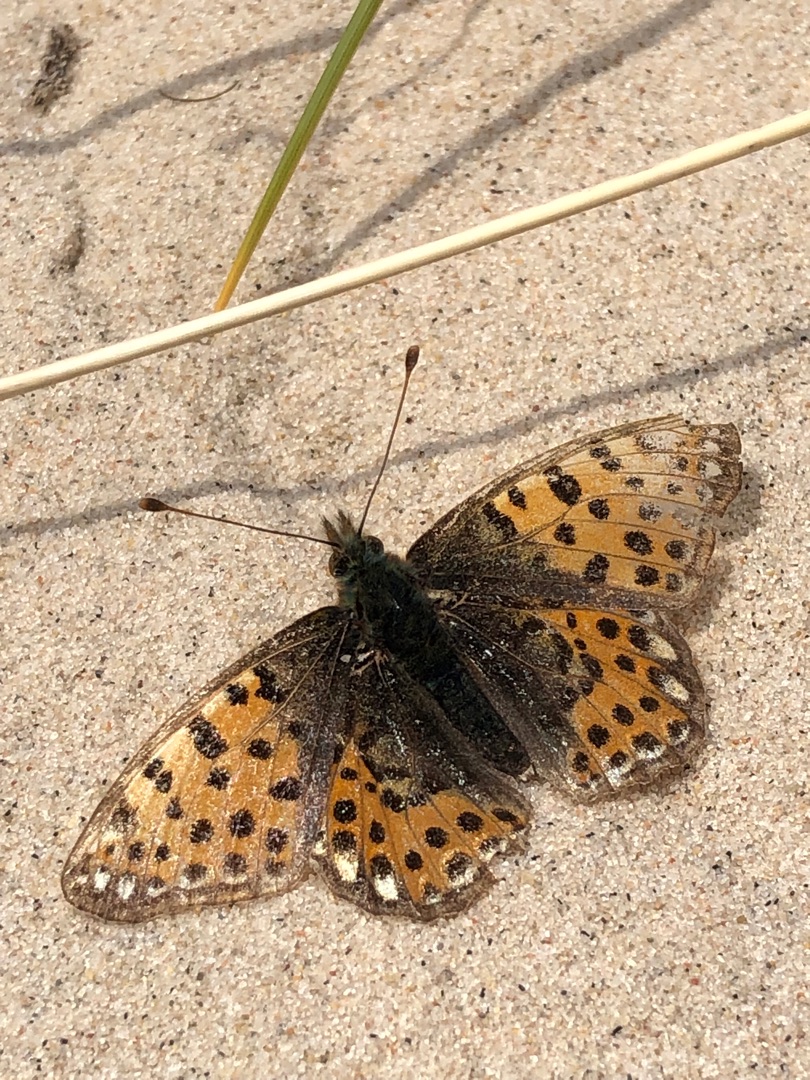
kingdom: Animalia
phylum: Arthropoda
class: Insecta
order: Lepidoptera
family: Nymphalidae
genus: Issoria
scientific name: Issoria lathonia
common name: Storplettet perlemorsommerfugl
